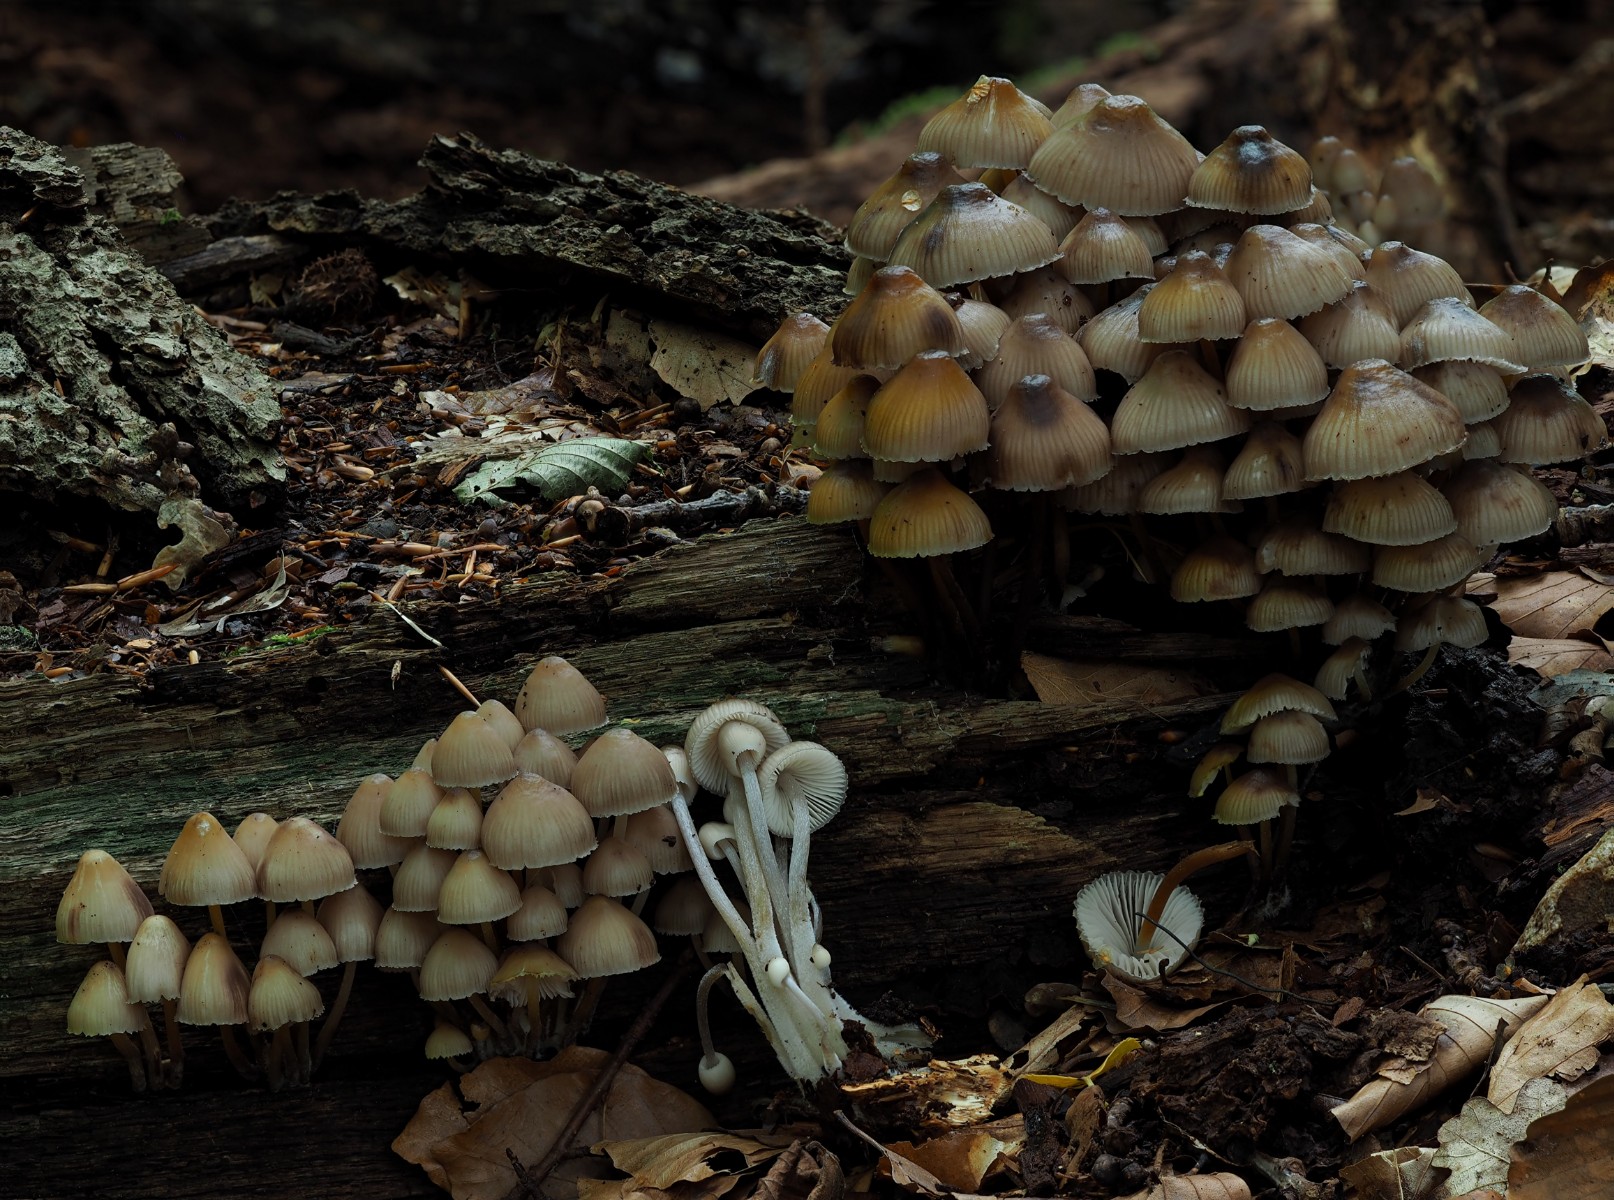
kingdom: Fungi
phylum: Basidiomycota
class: Agaricomycetes
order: Agaricales
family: Mycenaceae
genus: Mycena
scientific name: Mycena inclinata
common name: nikkende huesvamp
